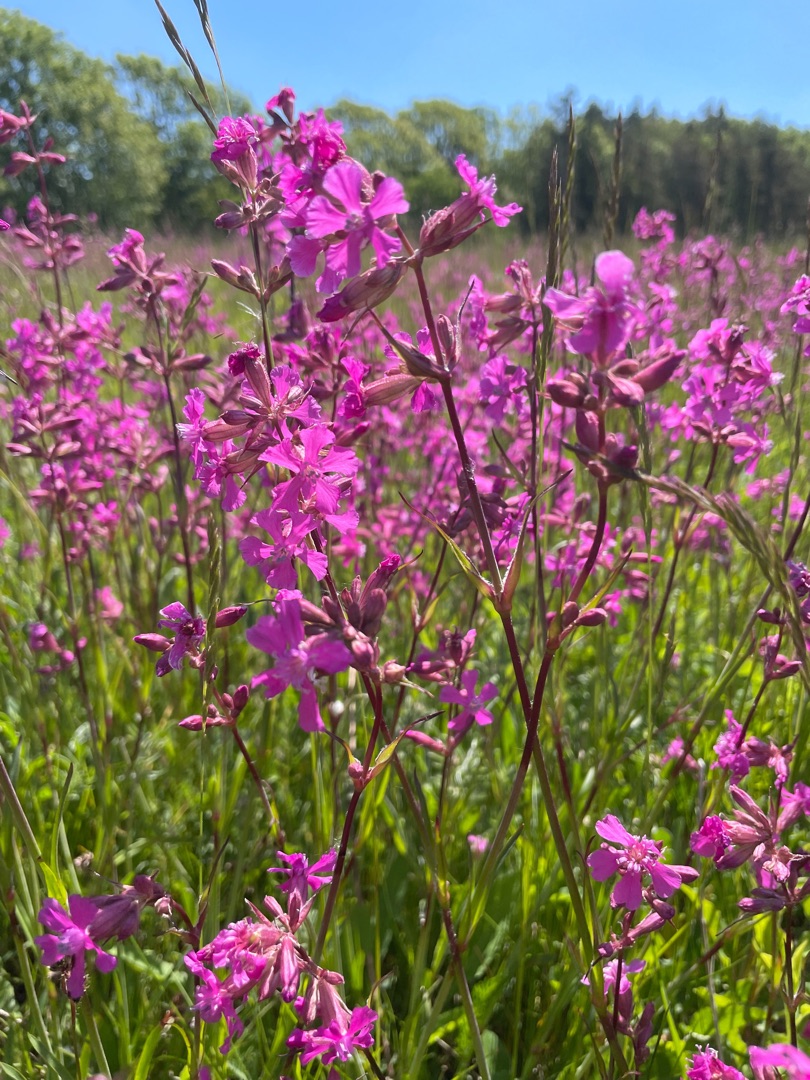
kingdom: Plantae
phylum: Tracheophyta
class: Magnoliopsida
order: Caryophyllales
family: Caryophyllaceae
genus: Viscaria
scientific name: Viscaria vulgaris
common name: Tjærenellike
